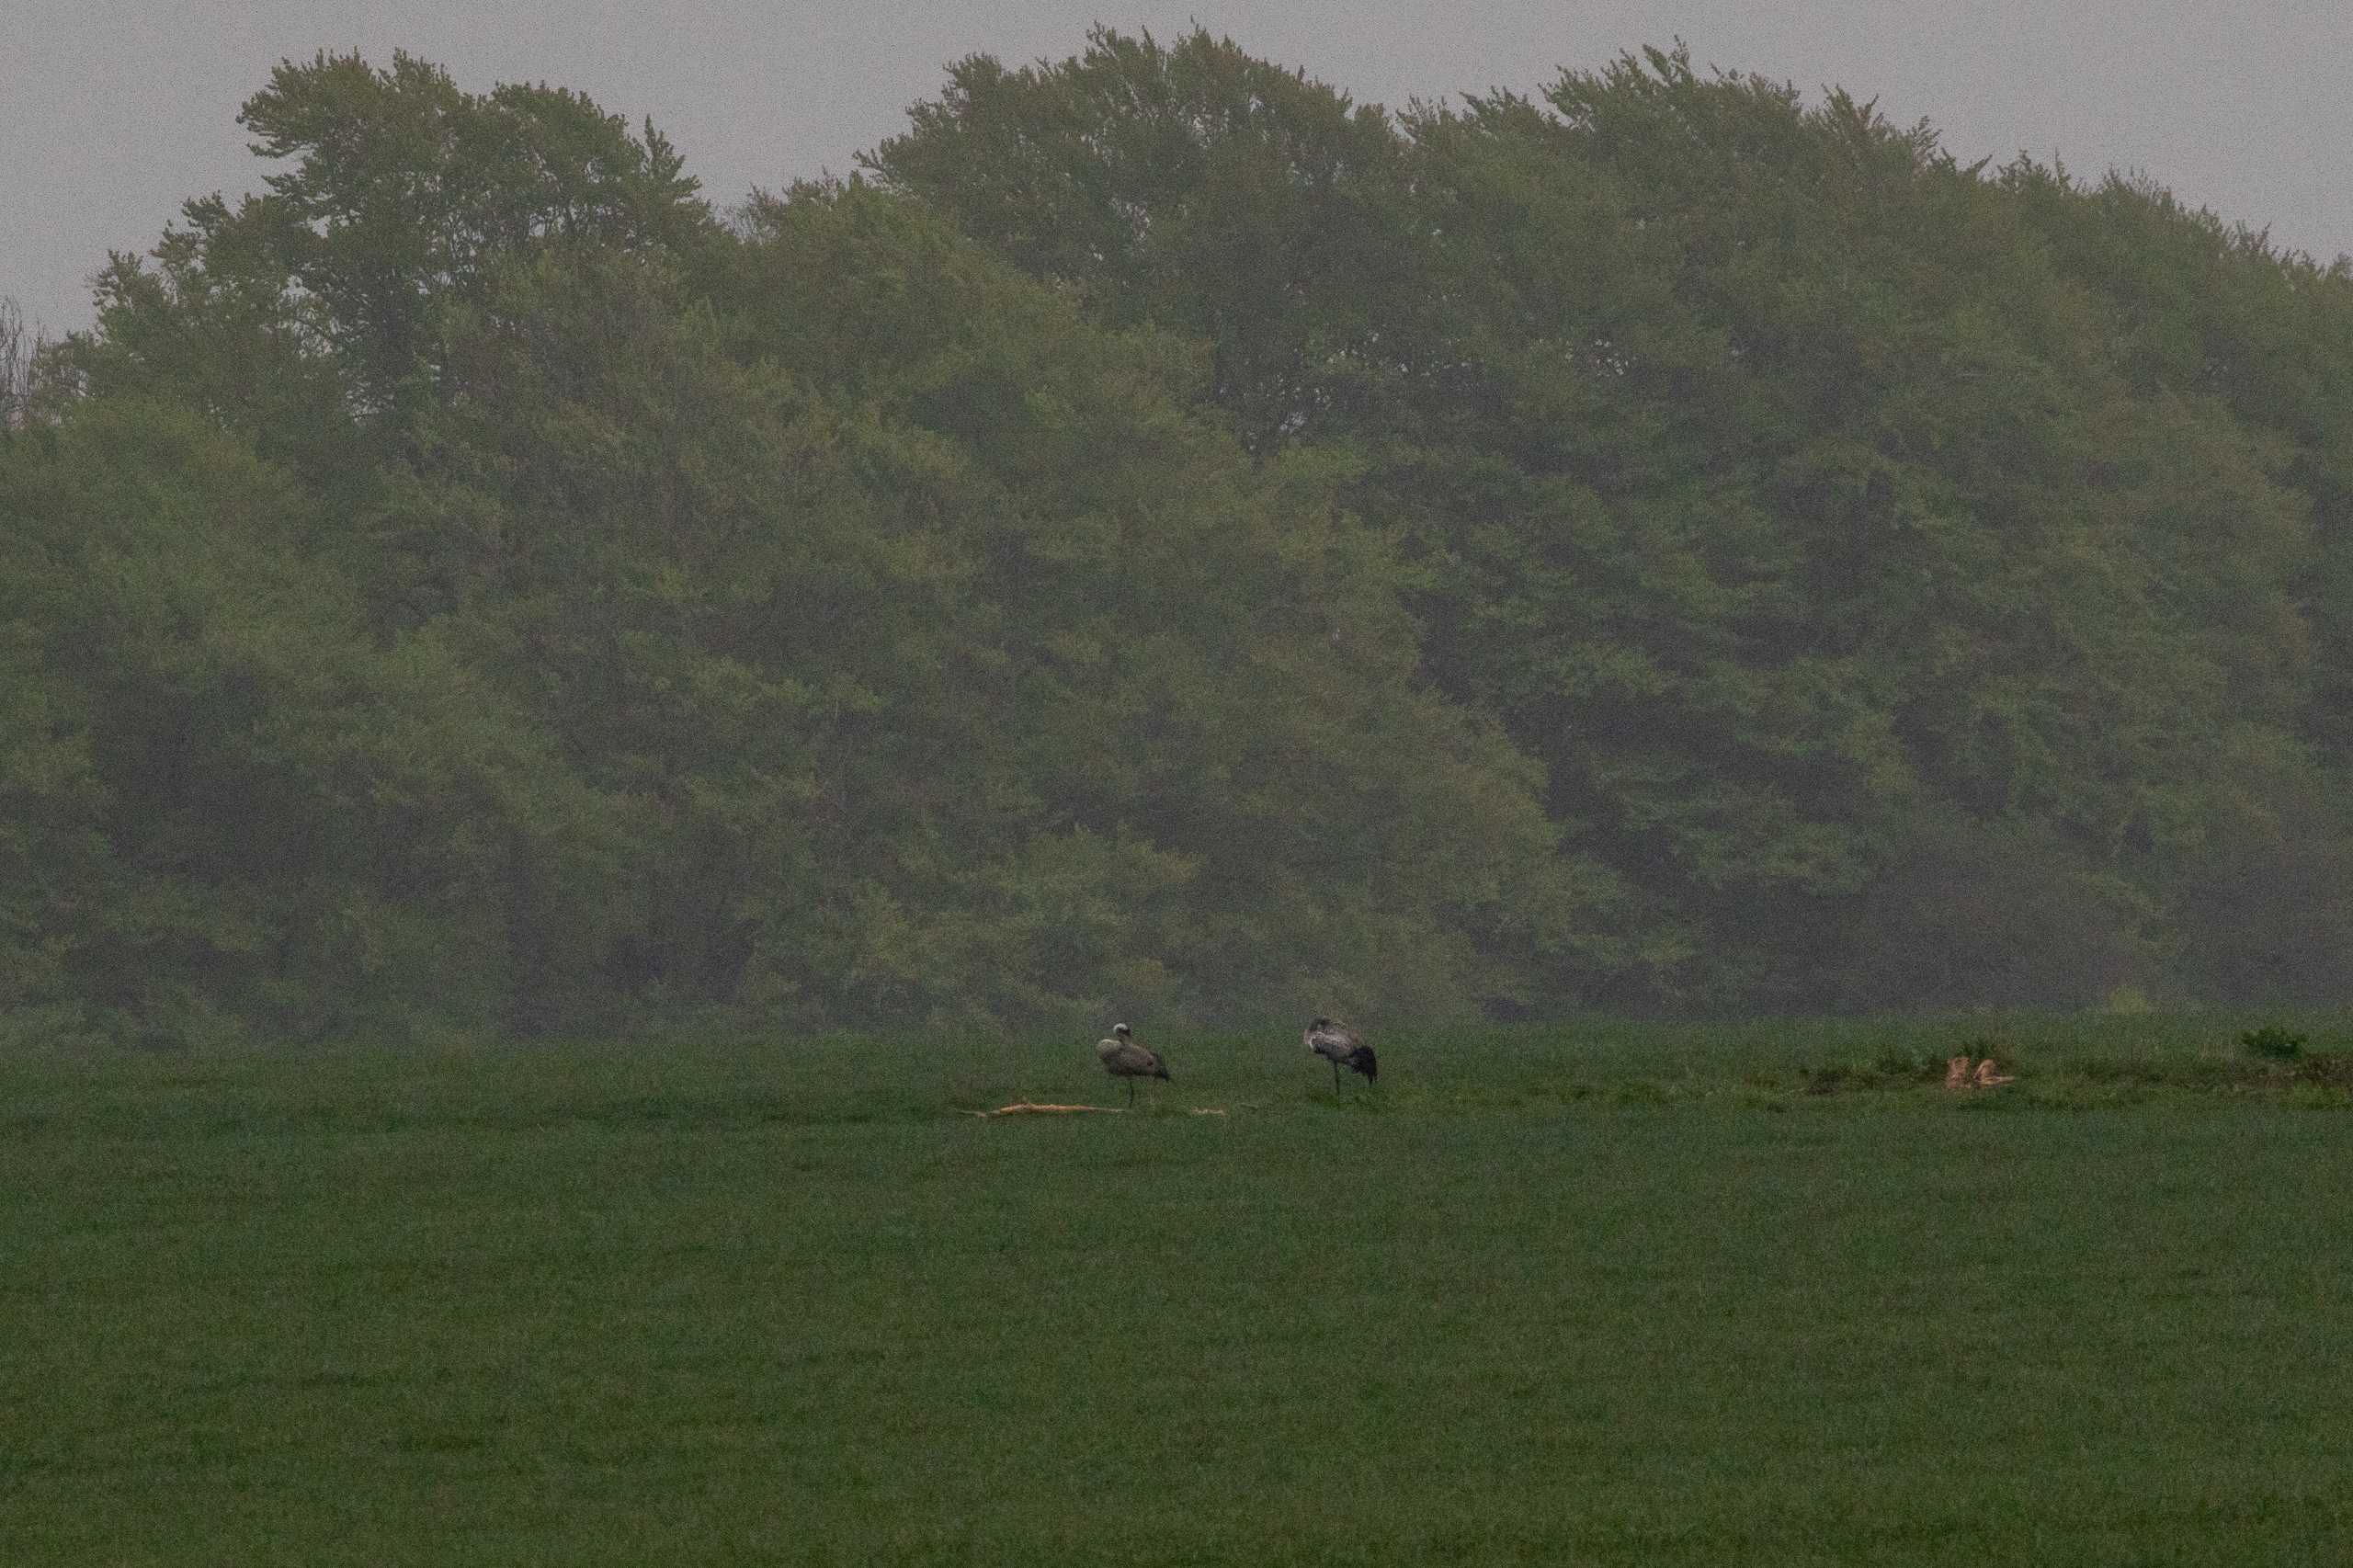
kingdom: Animalia
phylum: Chordata
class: Aves
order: Gruiformes
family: Gruidae
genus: Grus
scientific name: Grus grus
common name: Trane
